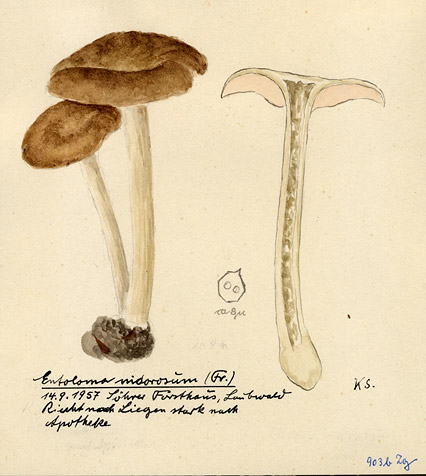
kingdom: Fungi
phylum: Basidiomycota
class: Agaricomycetes
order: Agaricales
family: Entolomataceae
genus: Entoloma
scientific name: Entoloma rhodopolium
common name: Wood pinkgill
